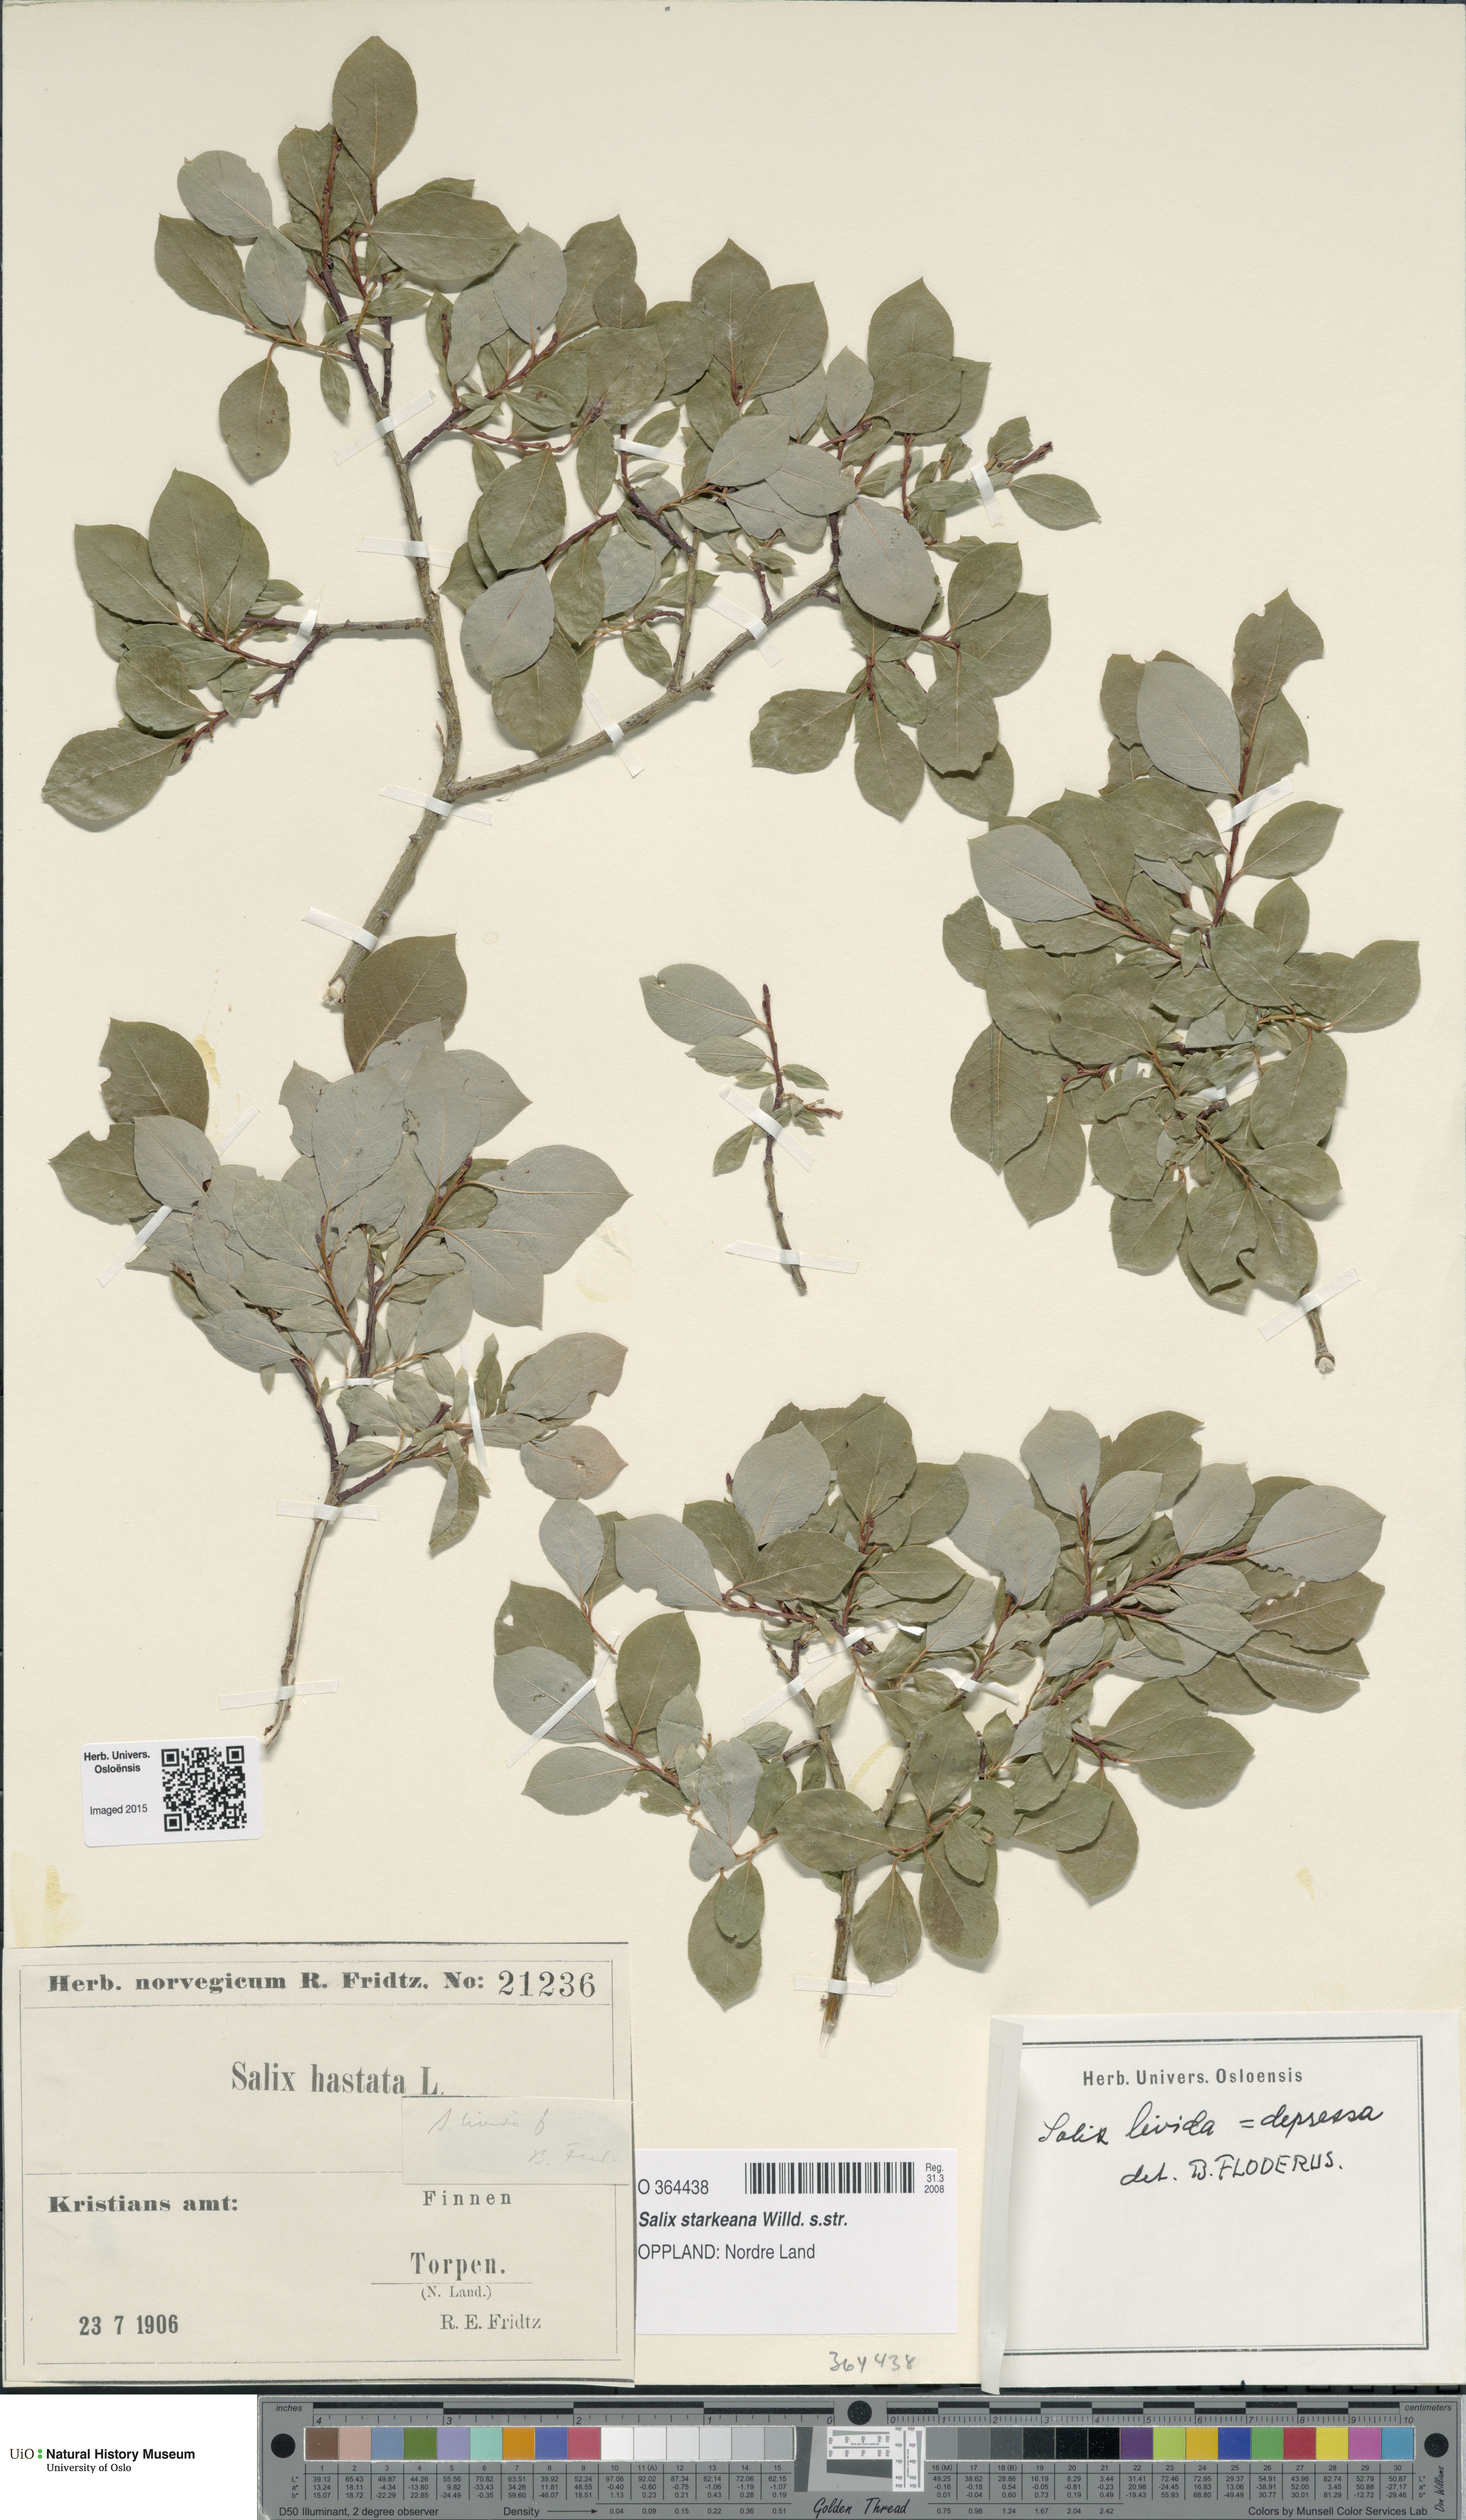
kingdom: Plantae
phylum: Tracheophyta
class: Magnoliopsida
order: Malpighiales
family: Salicaceae
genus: Salix
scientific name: Salix starkeana
